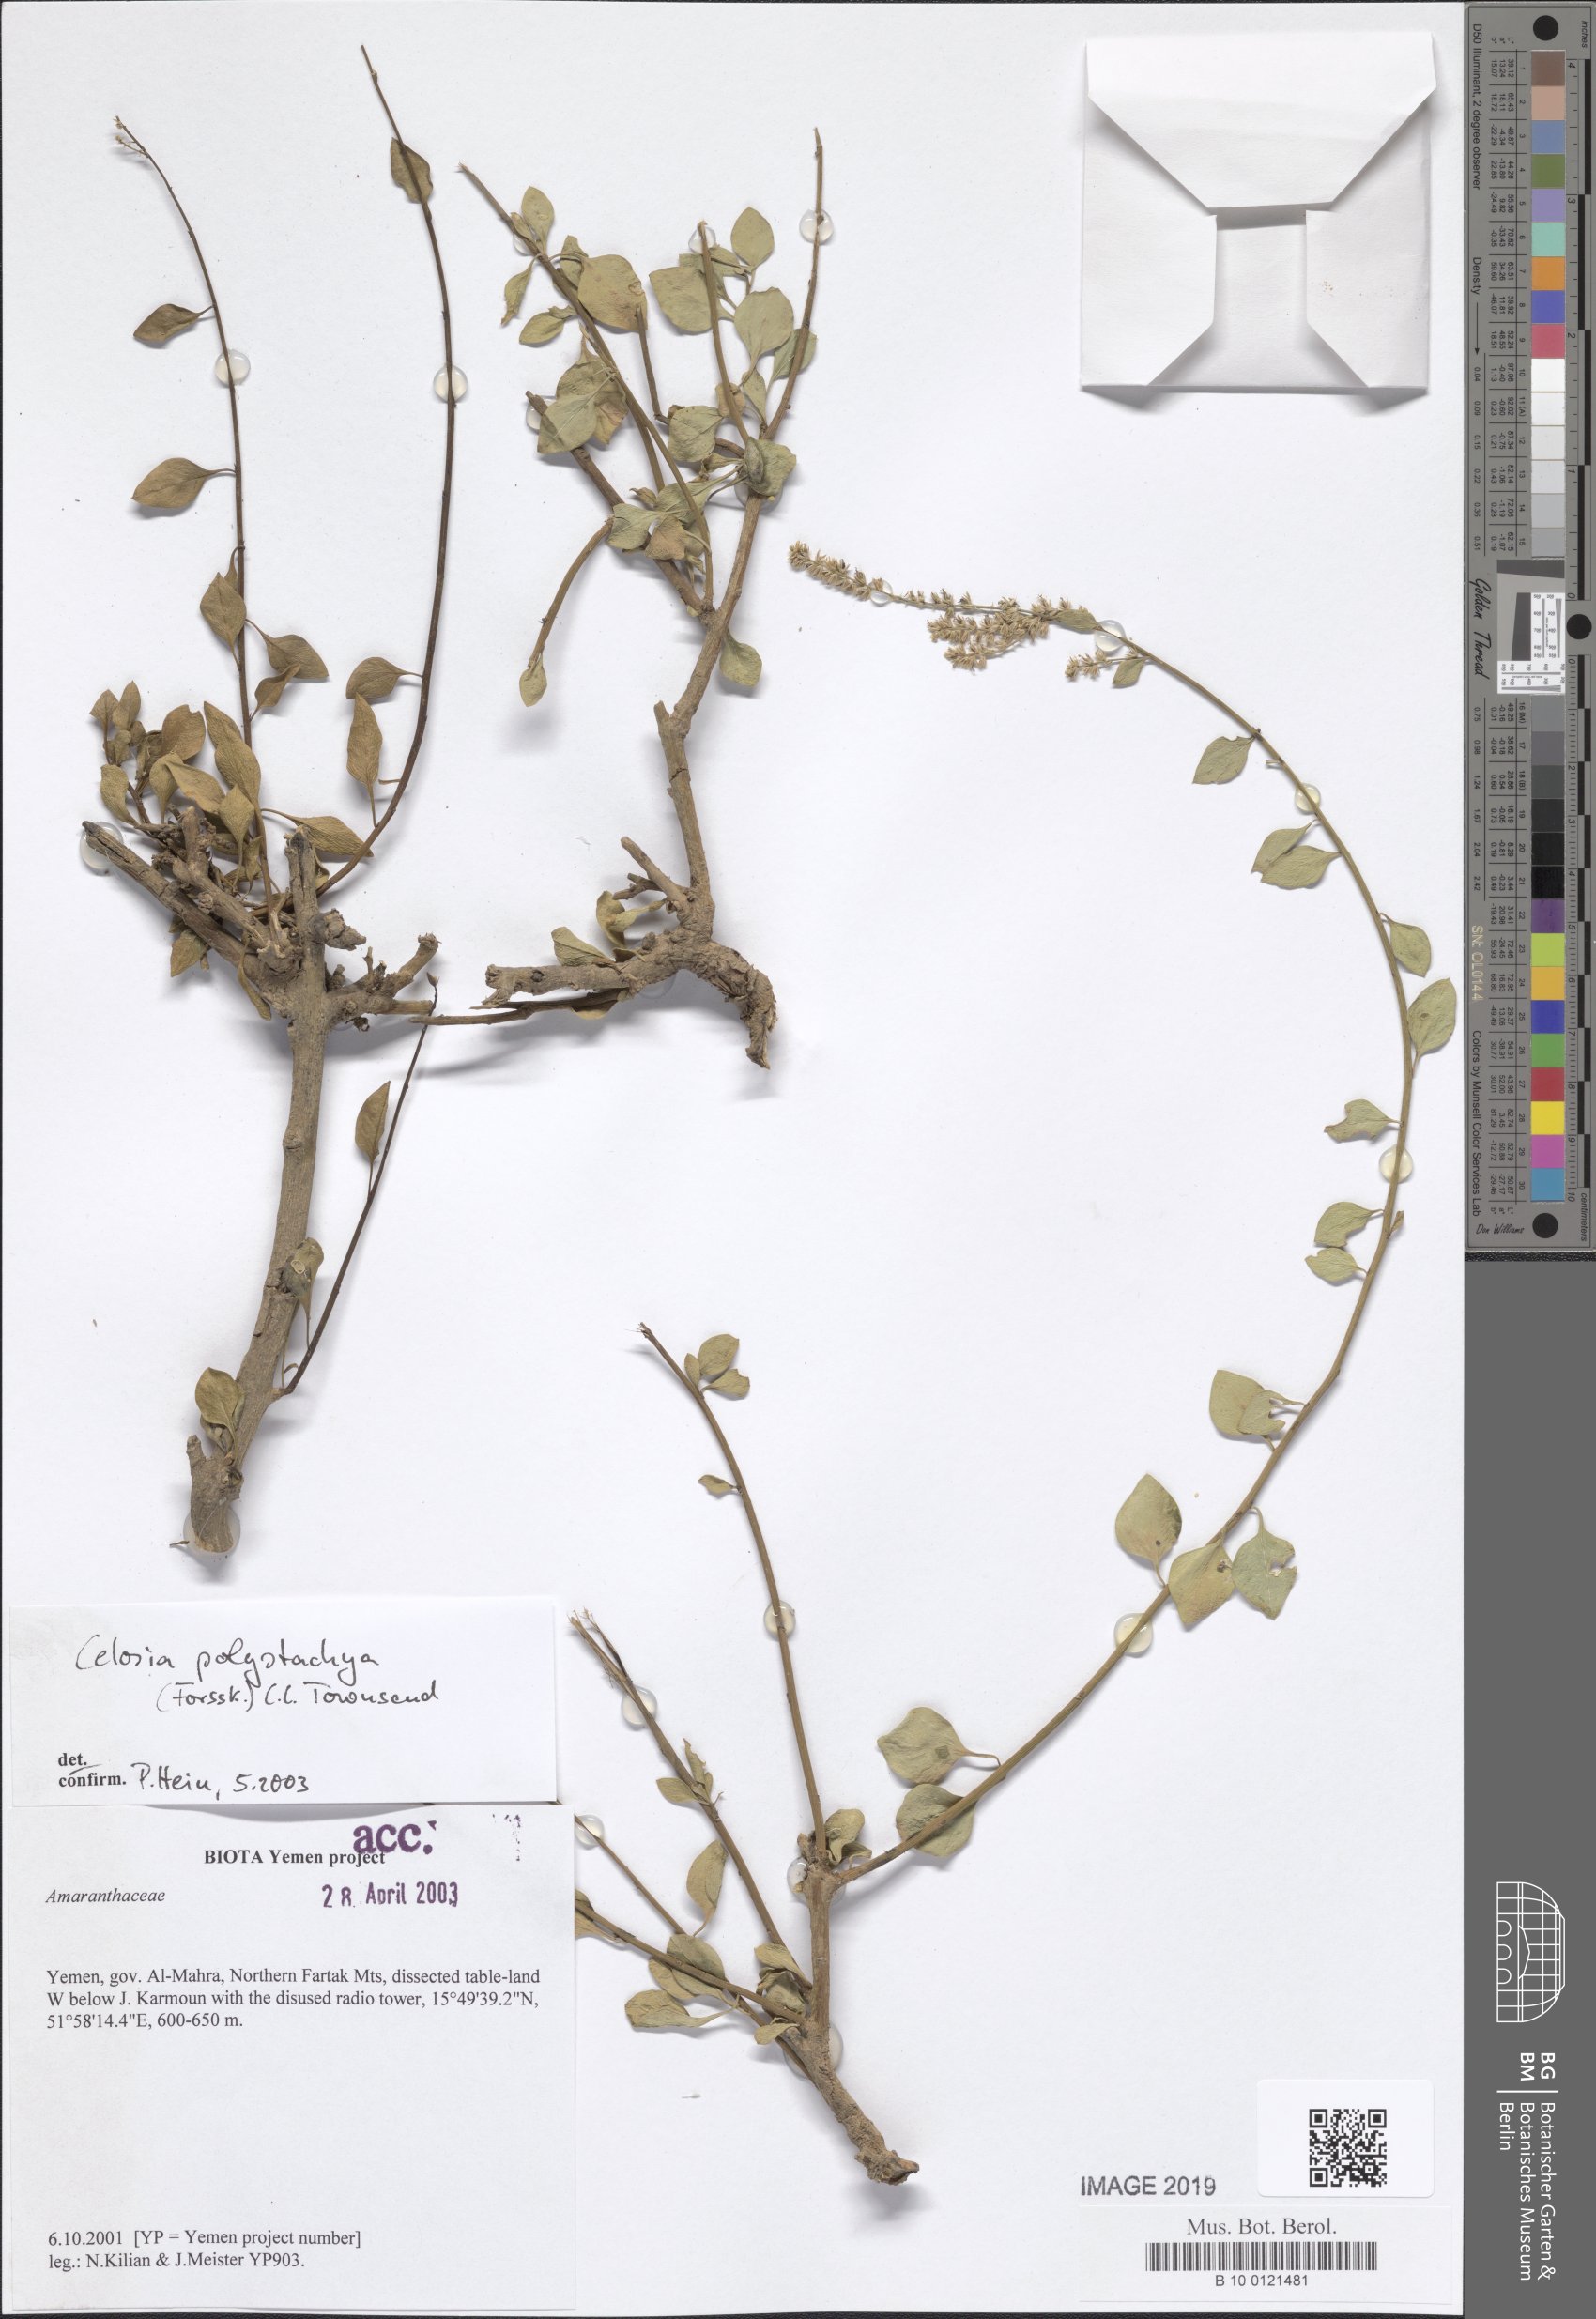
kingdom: Plantae
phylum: Tracheophyta
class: Magnoliopsida
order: Caryophyllales
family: Amaranthaceae
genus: Celosia
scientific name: Celosia polystachya
